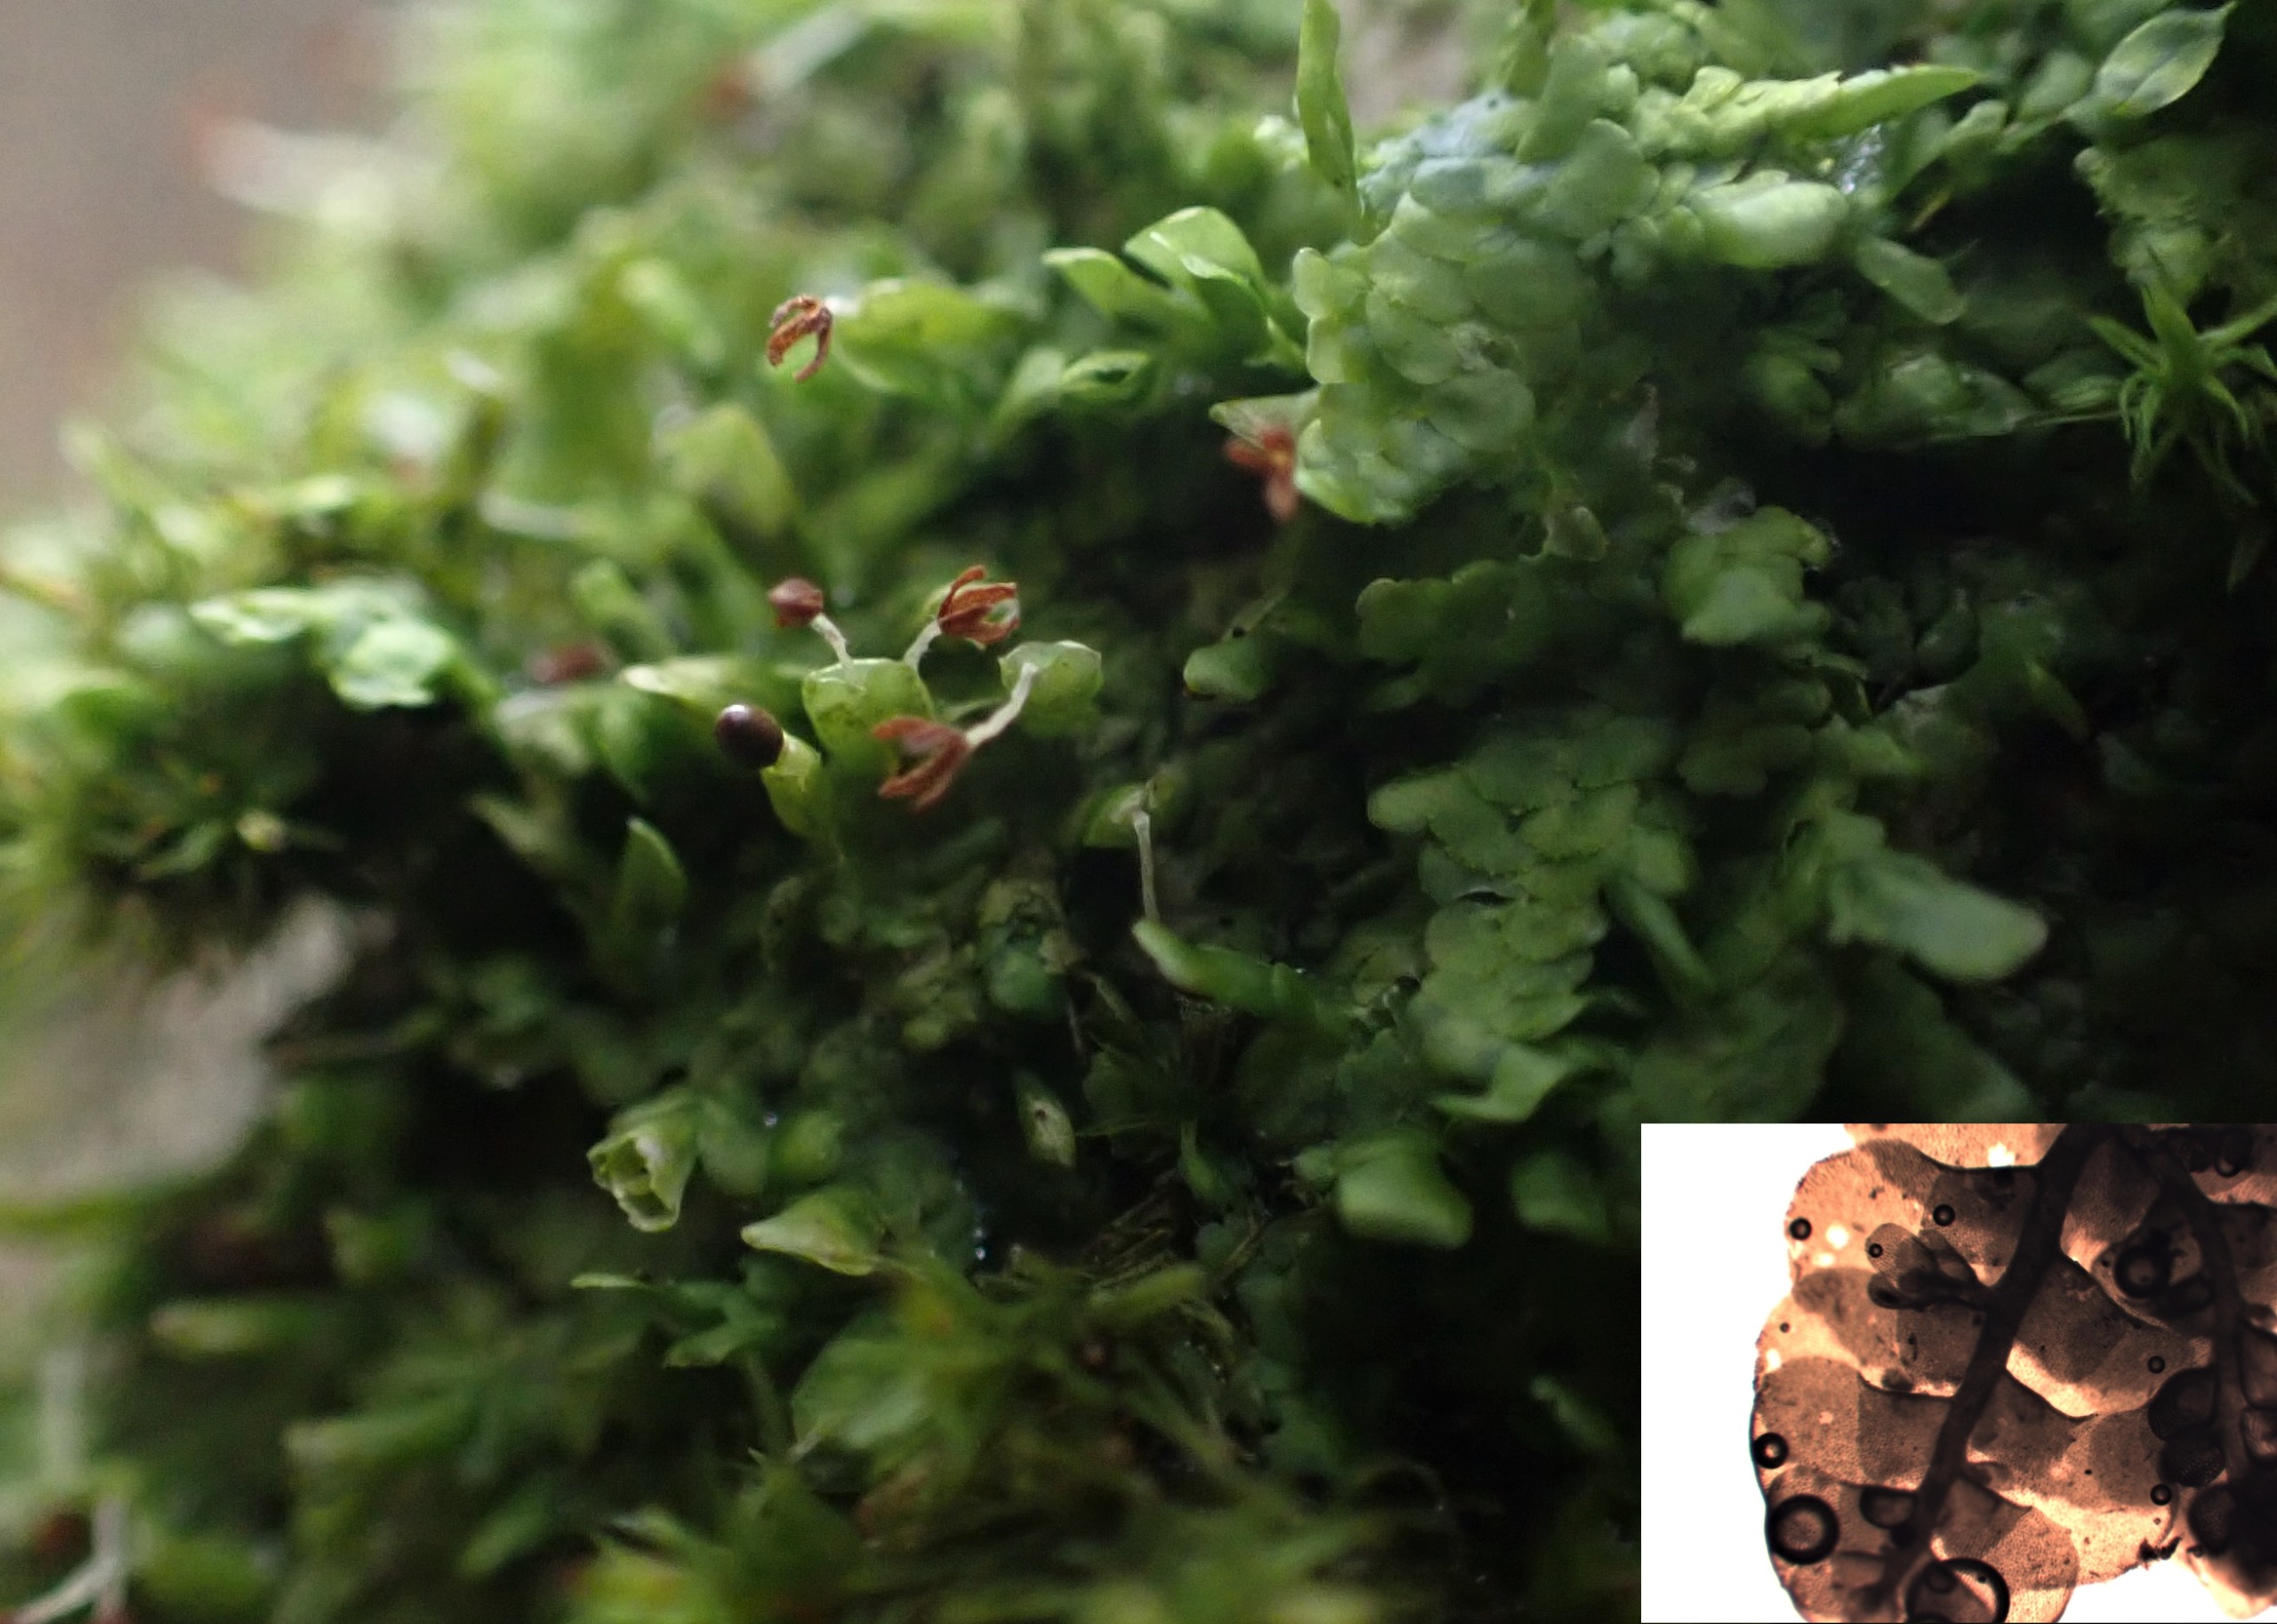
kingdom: Plantae
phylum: Marchantiophyta
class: Jungermanniopsida
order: Porellales
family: Radulaceae
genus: Radula
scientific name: Radula complanata
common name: Almindelig spartelmos
